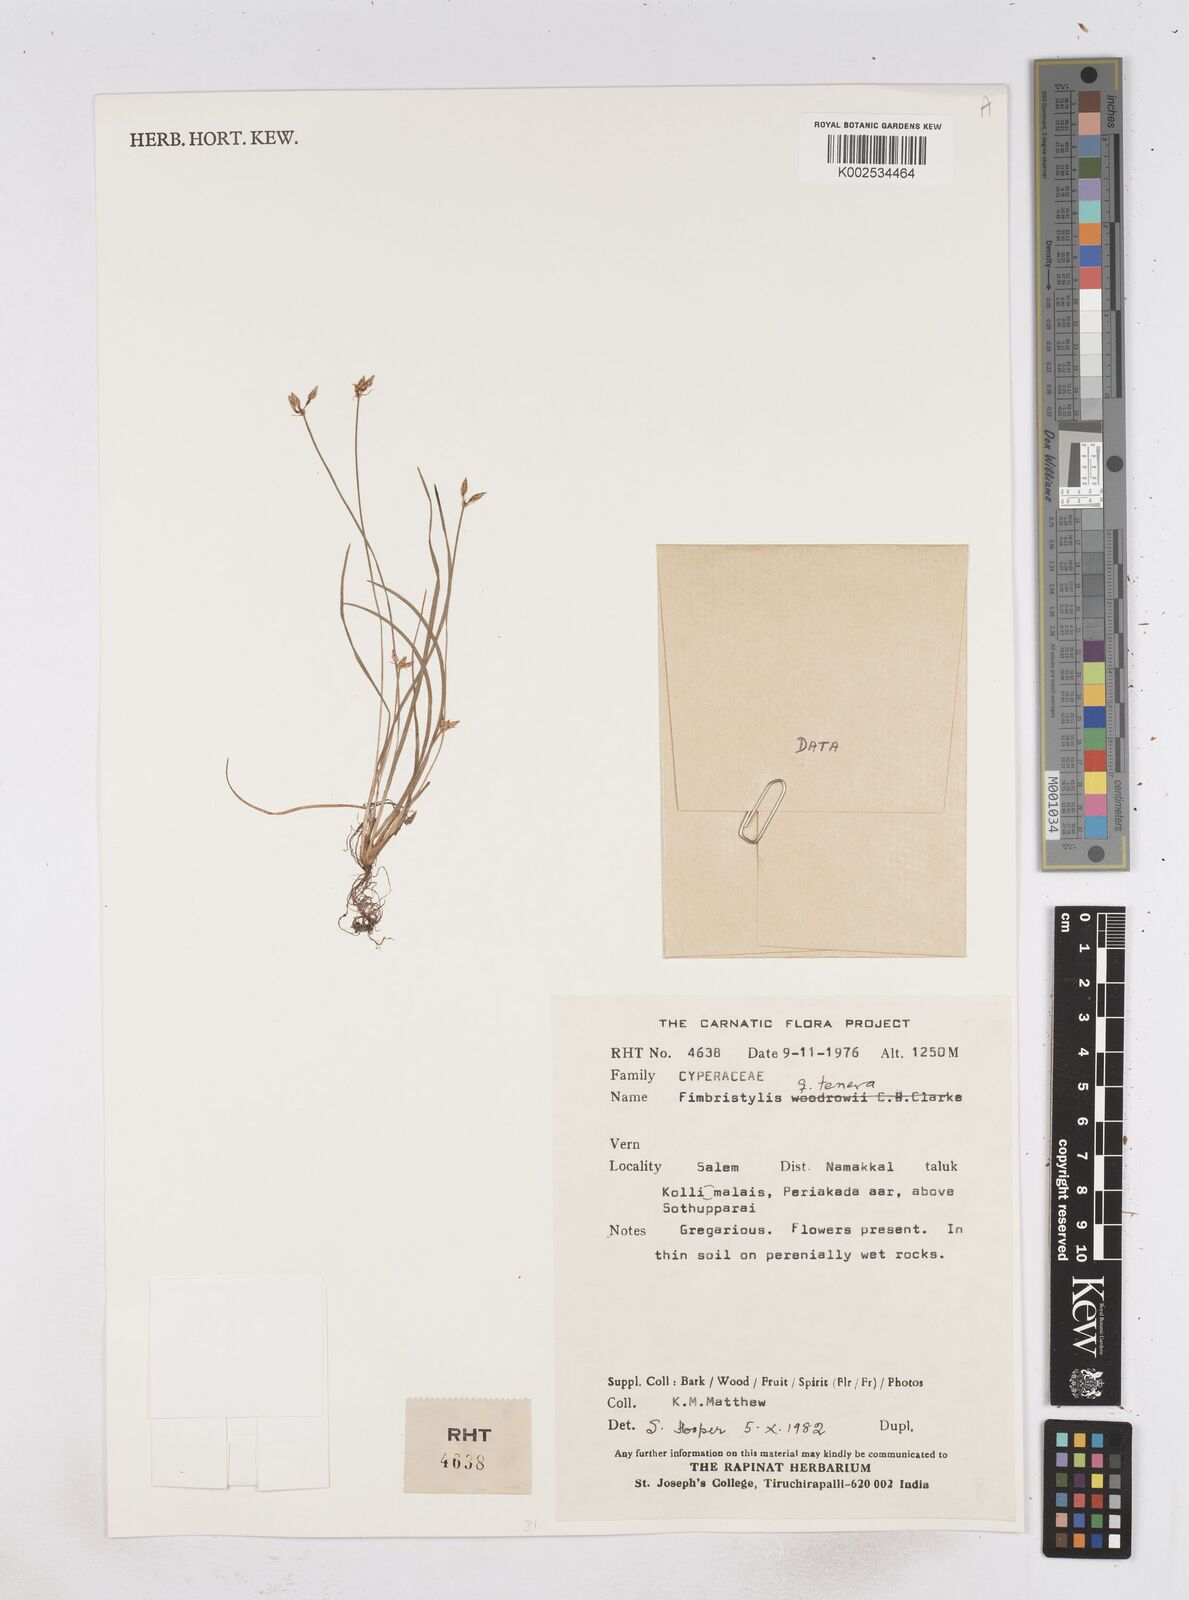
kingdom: Plantae
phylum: Tracheophyta
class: Liliopsida
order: Poales
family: Cyperaceae
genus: Fimbristylis
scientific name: Fimbristylis tenera
